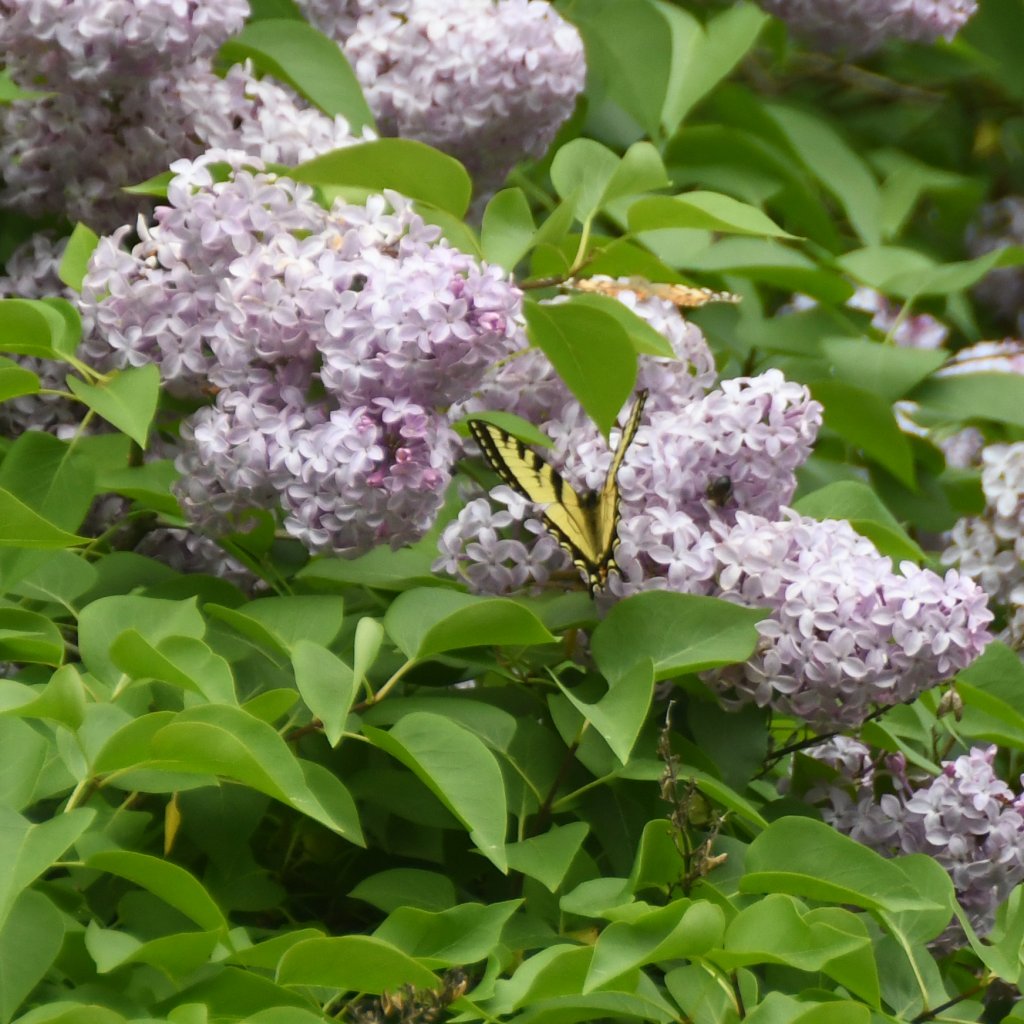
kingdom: Animalia
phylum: Arthropoda
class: Insecta
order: Lepidoptera
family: Papilionidae
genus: Pterourus
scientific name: Pterourus canadensis
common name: Canadian Tiger Swallowtail
